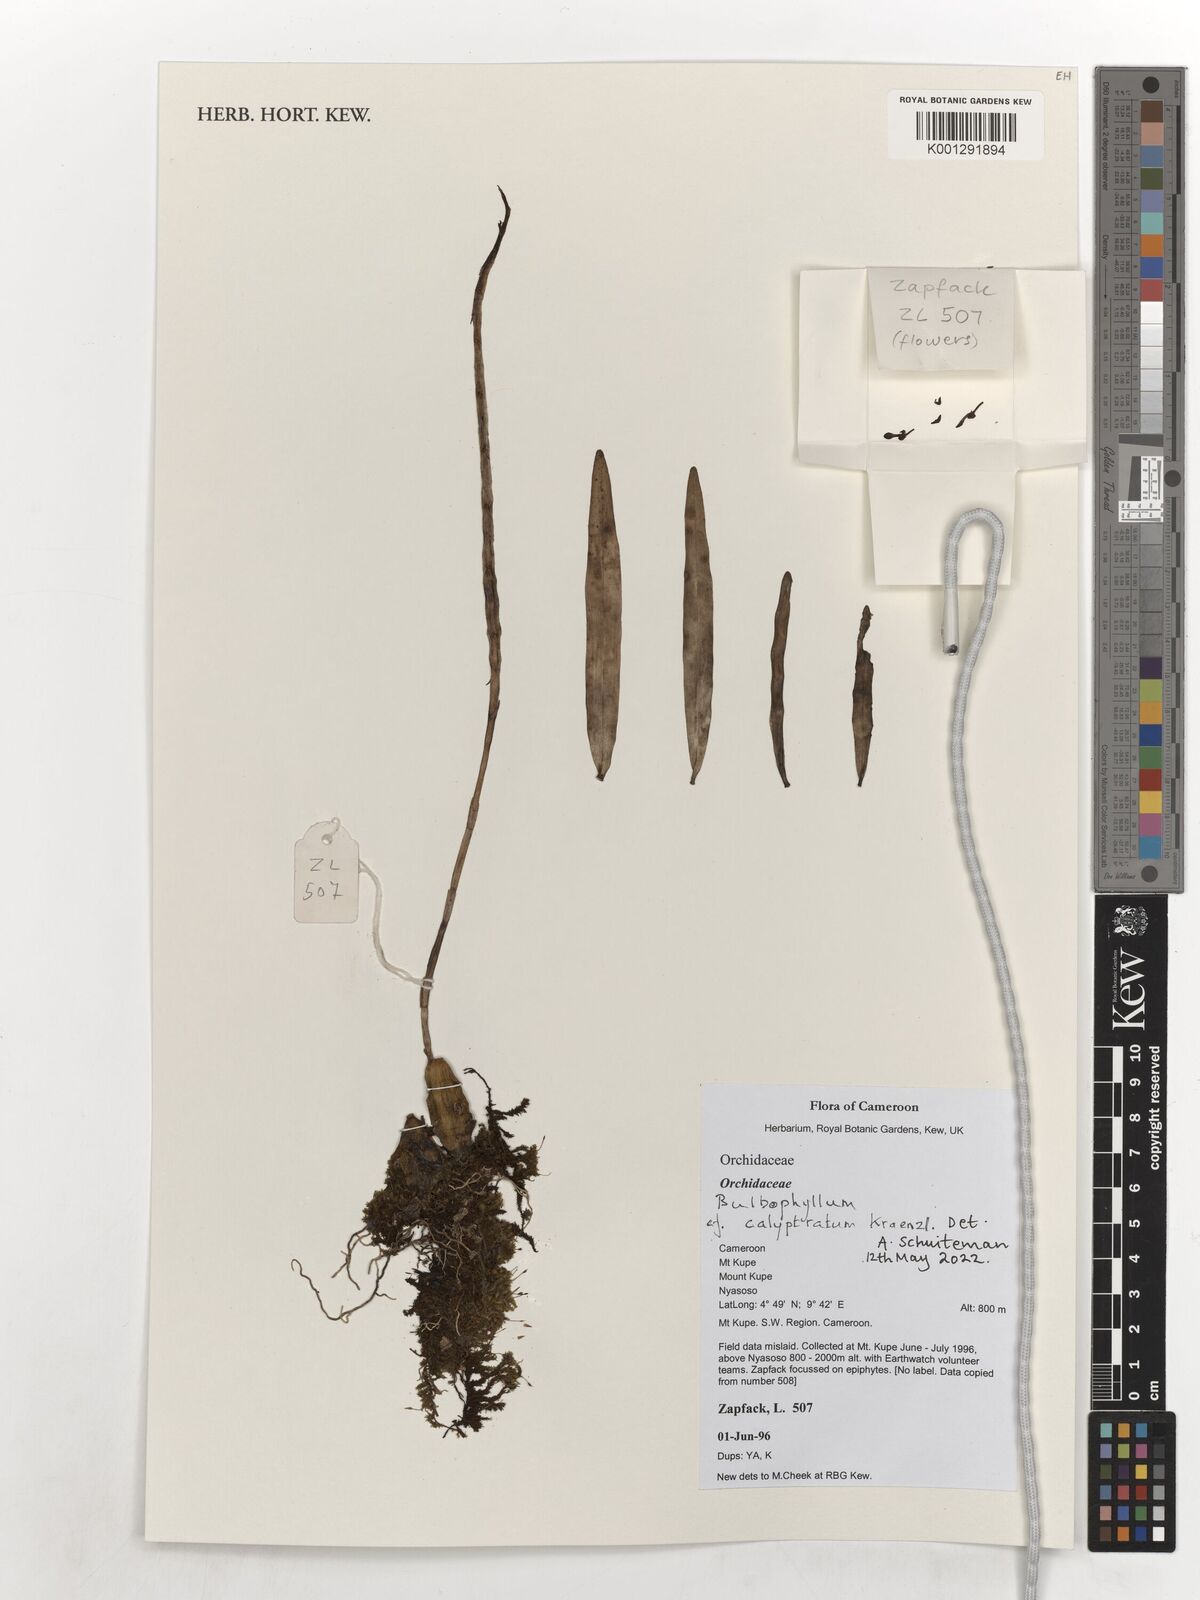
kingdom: Plantae
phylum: Tracheophyta
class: Liliopsida
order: Asparagales
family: Orchidaceae
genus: Bulbophyllum
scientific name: Bulbophyllum calyptratum
